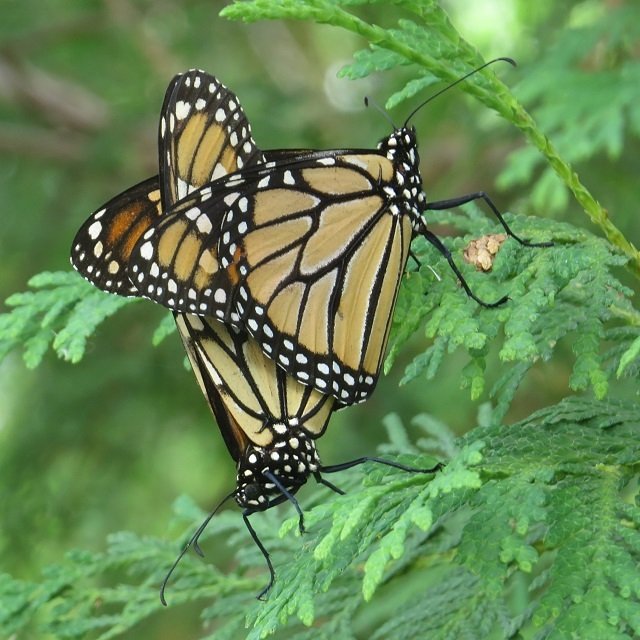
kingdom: Animalia
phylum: Arthropoda
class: Insecta
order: Lepidoptera
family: Nymphalidae
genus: Danaus
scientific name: Danaus plexippus
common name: Monarch
